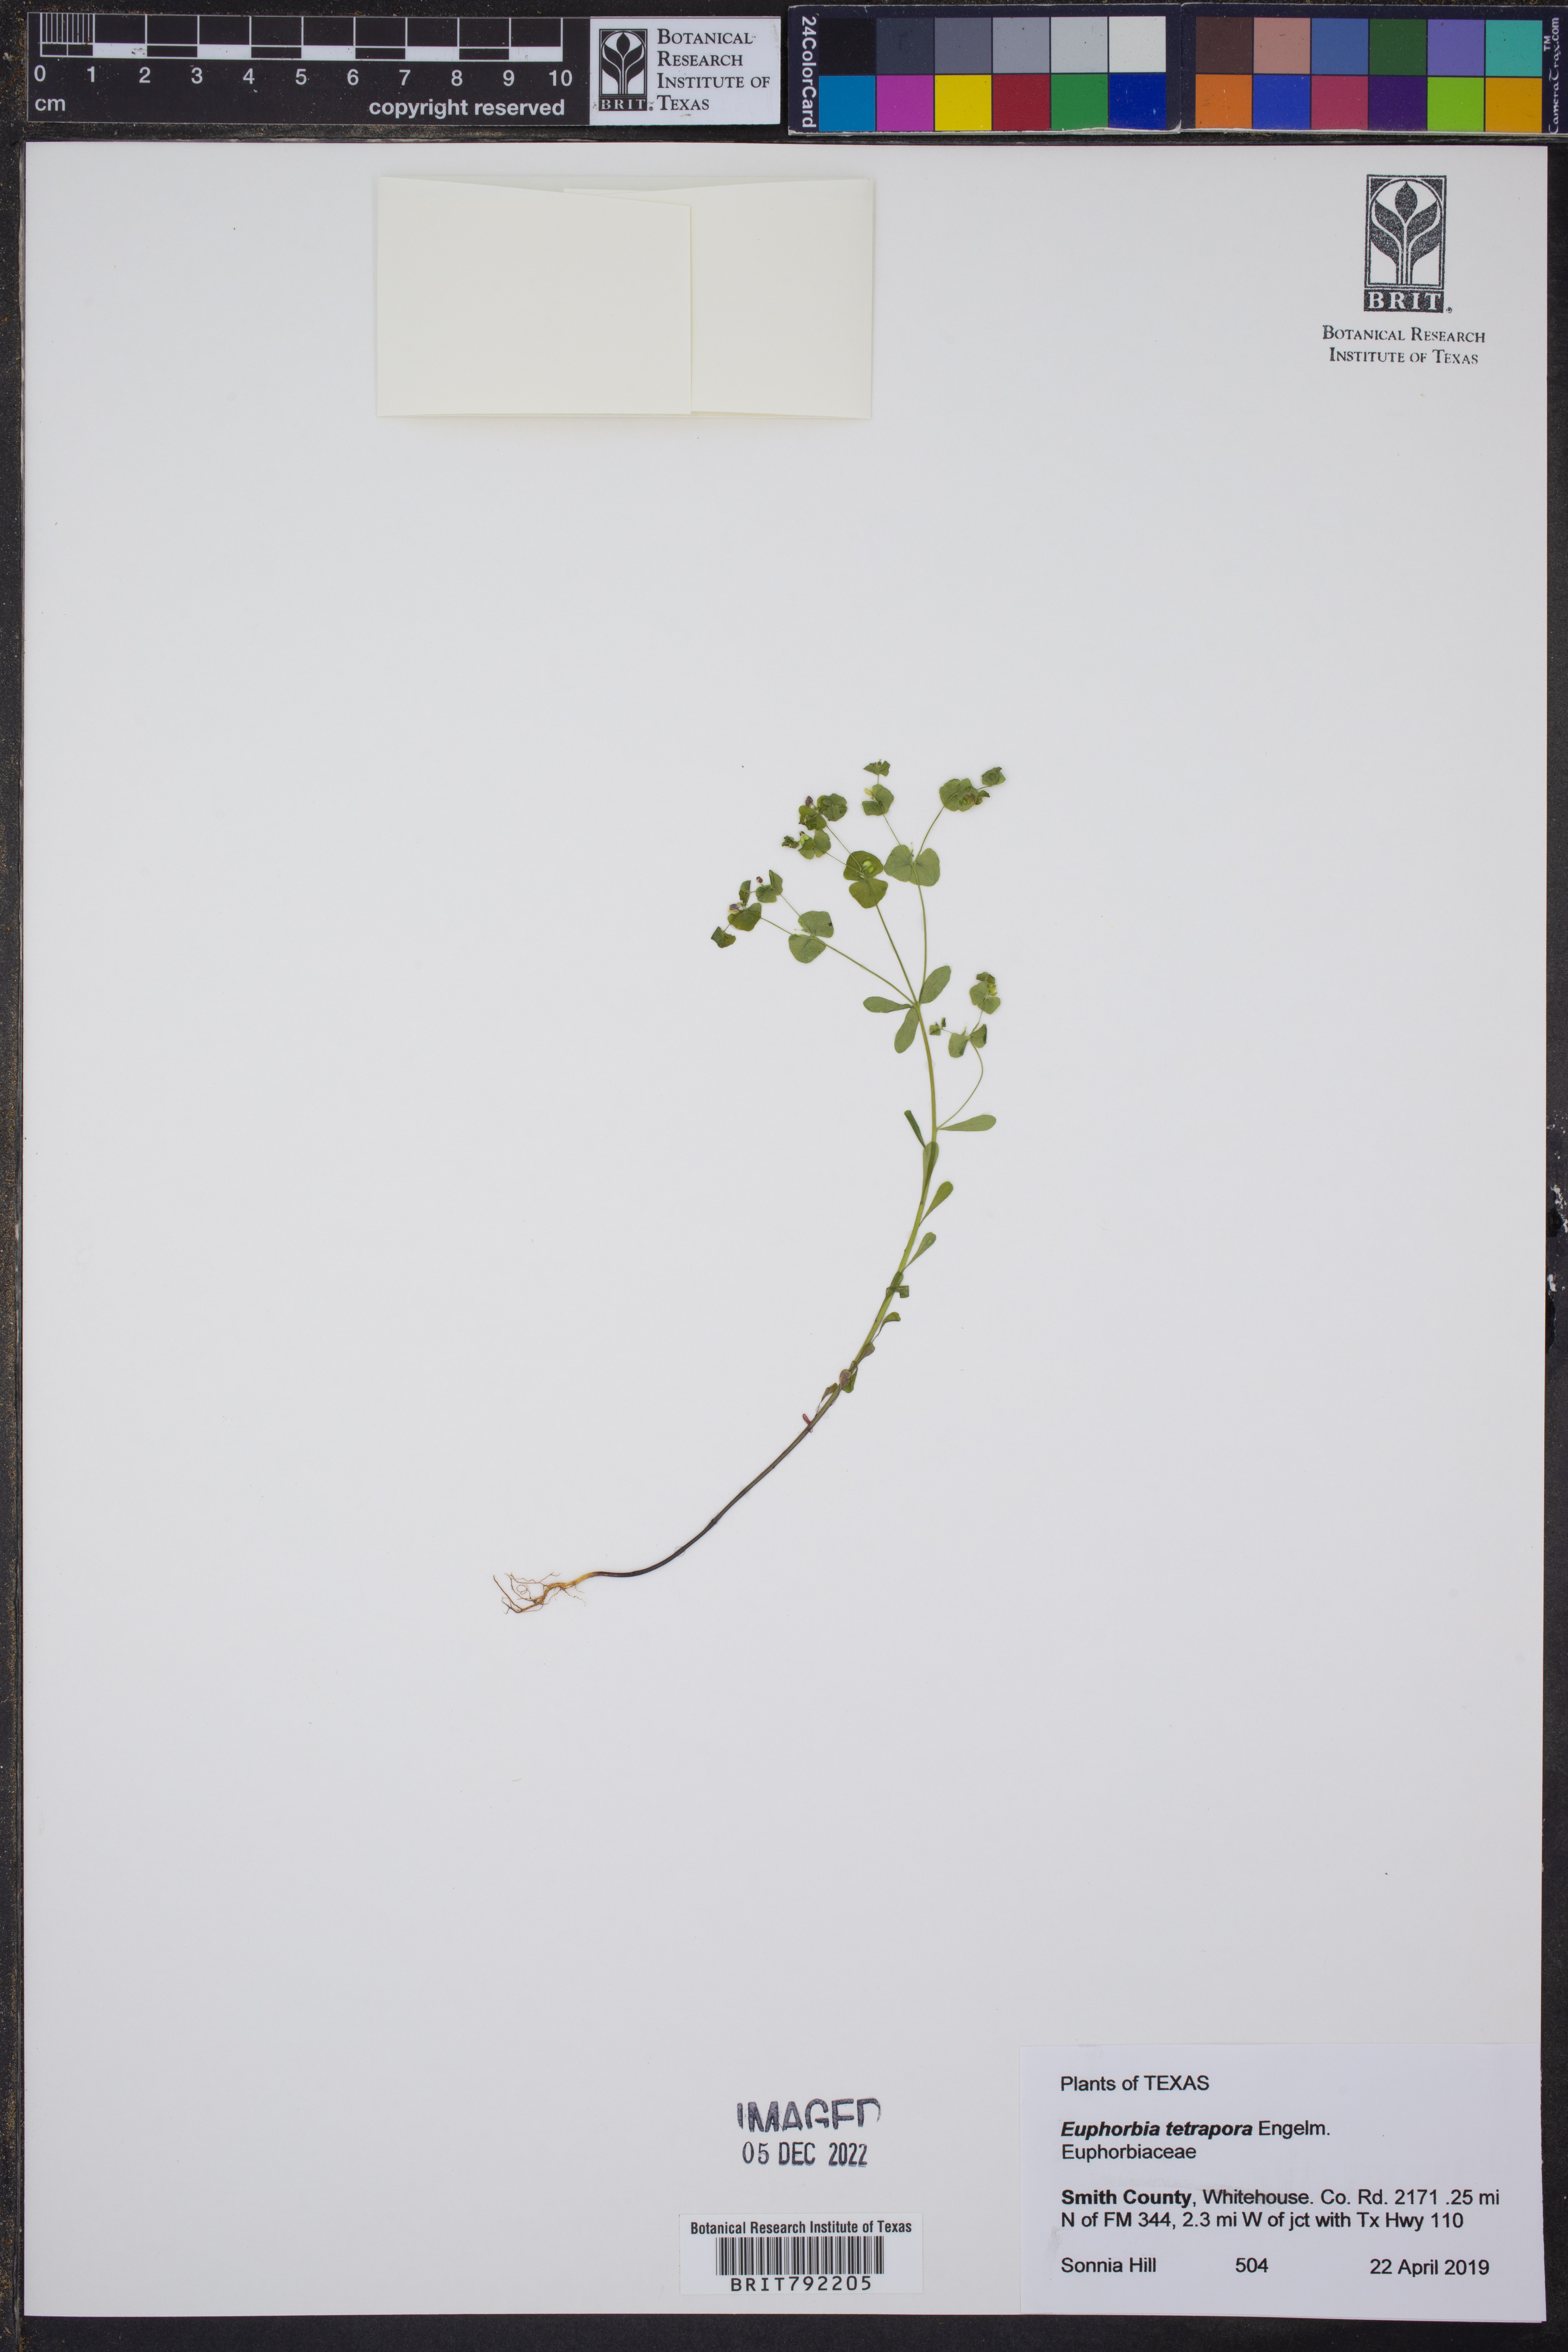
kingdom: Plantae
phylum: Tracheophyta
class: Magnoliopsida
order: Malpighiales
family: Euphorbiaceae
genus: Euphorbia
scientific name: Euphorbia tetrapora
